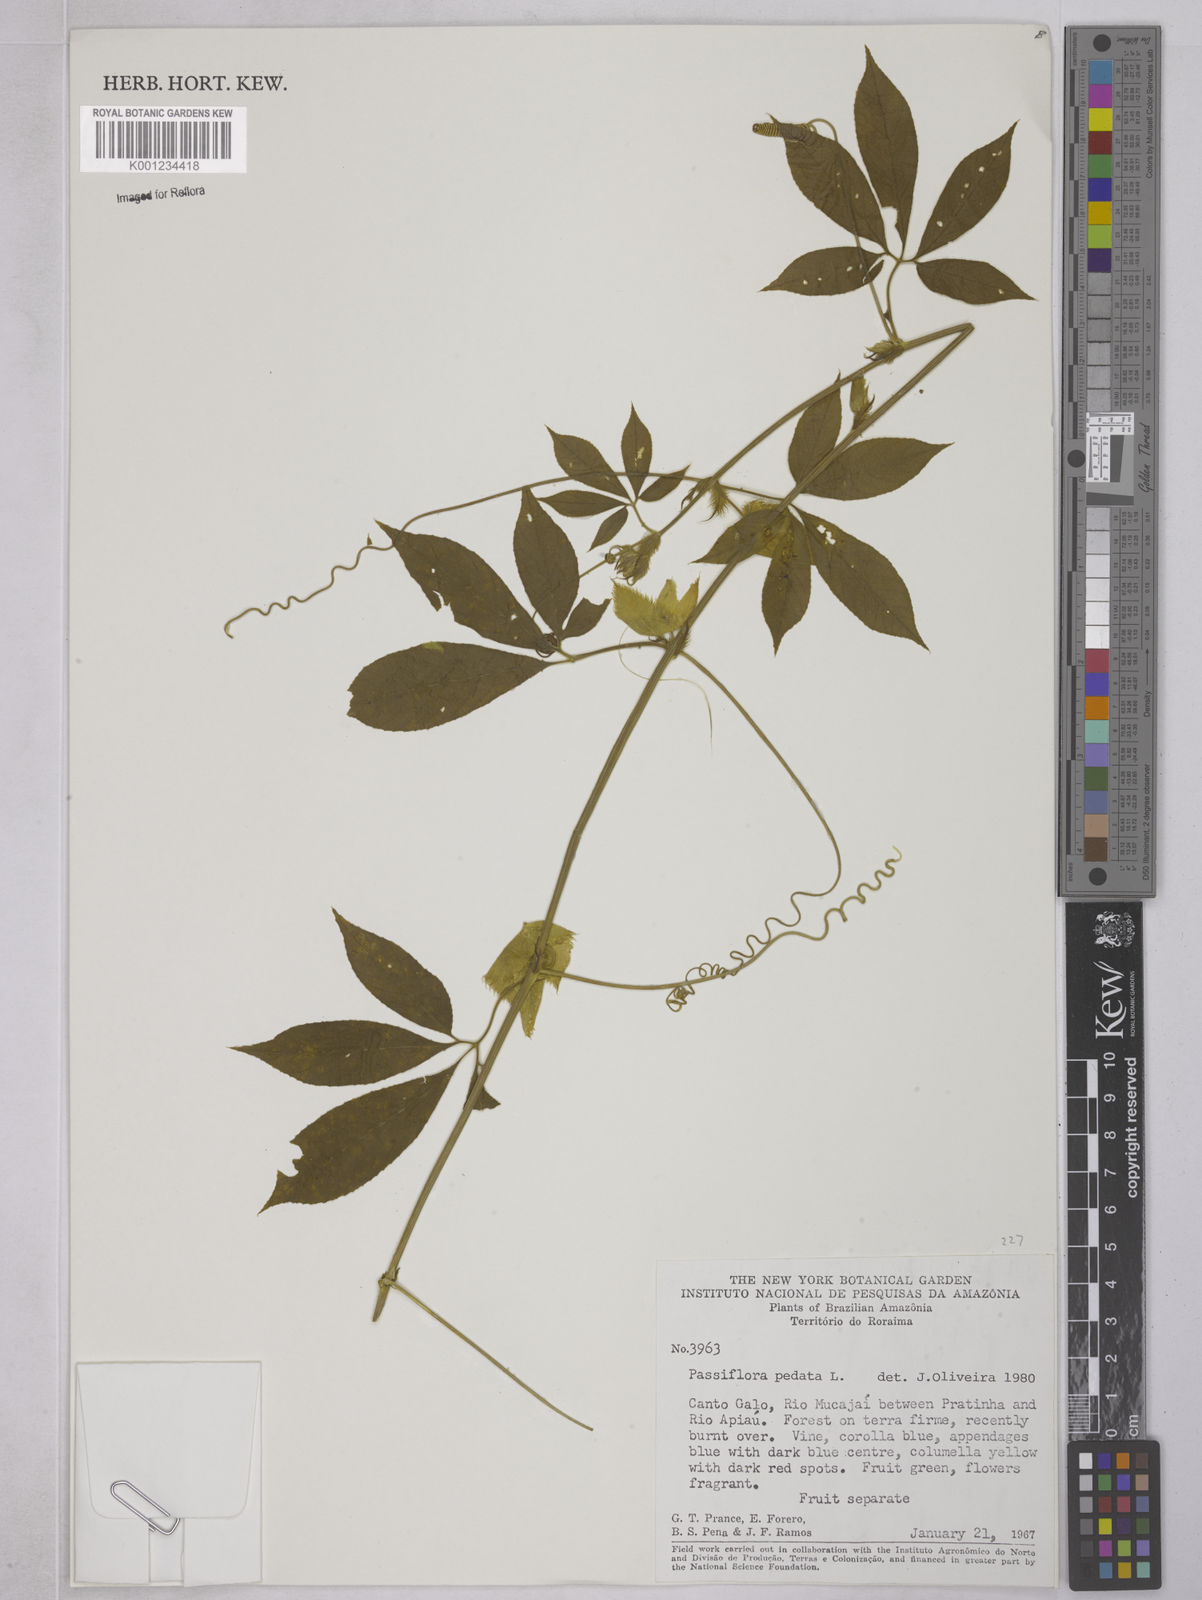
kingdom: Plantae
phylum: Tracheophyta
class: Magnoliopsida
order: Malpighiales
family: Passifloraceae
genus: Passiflora
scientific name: Passiflora pedata
